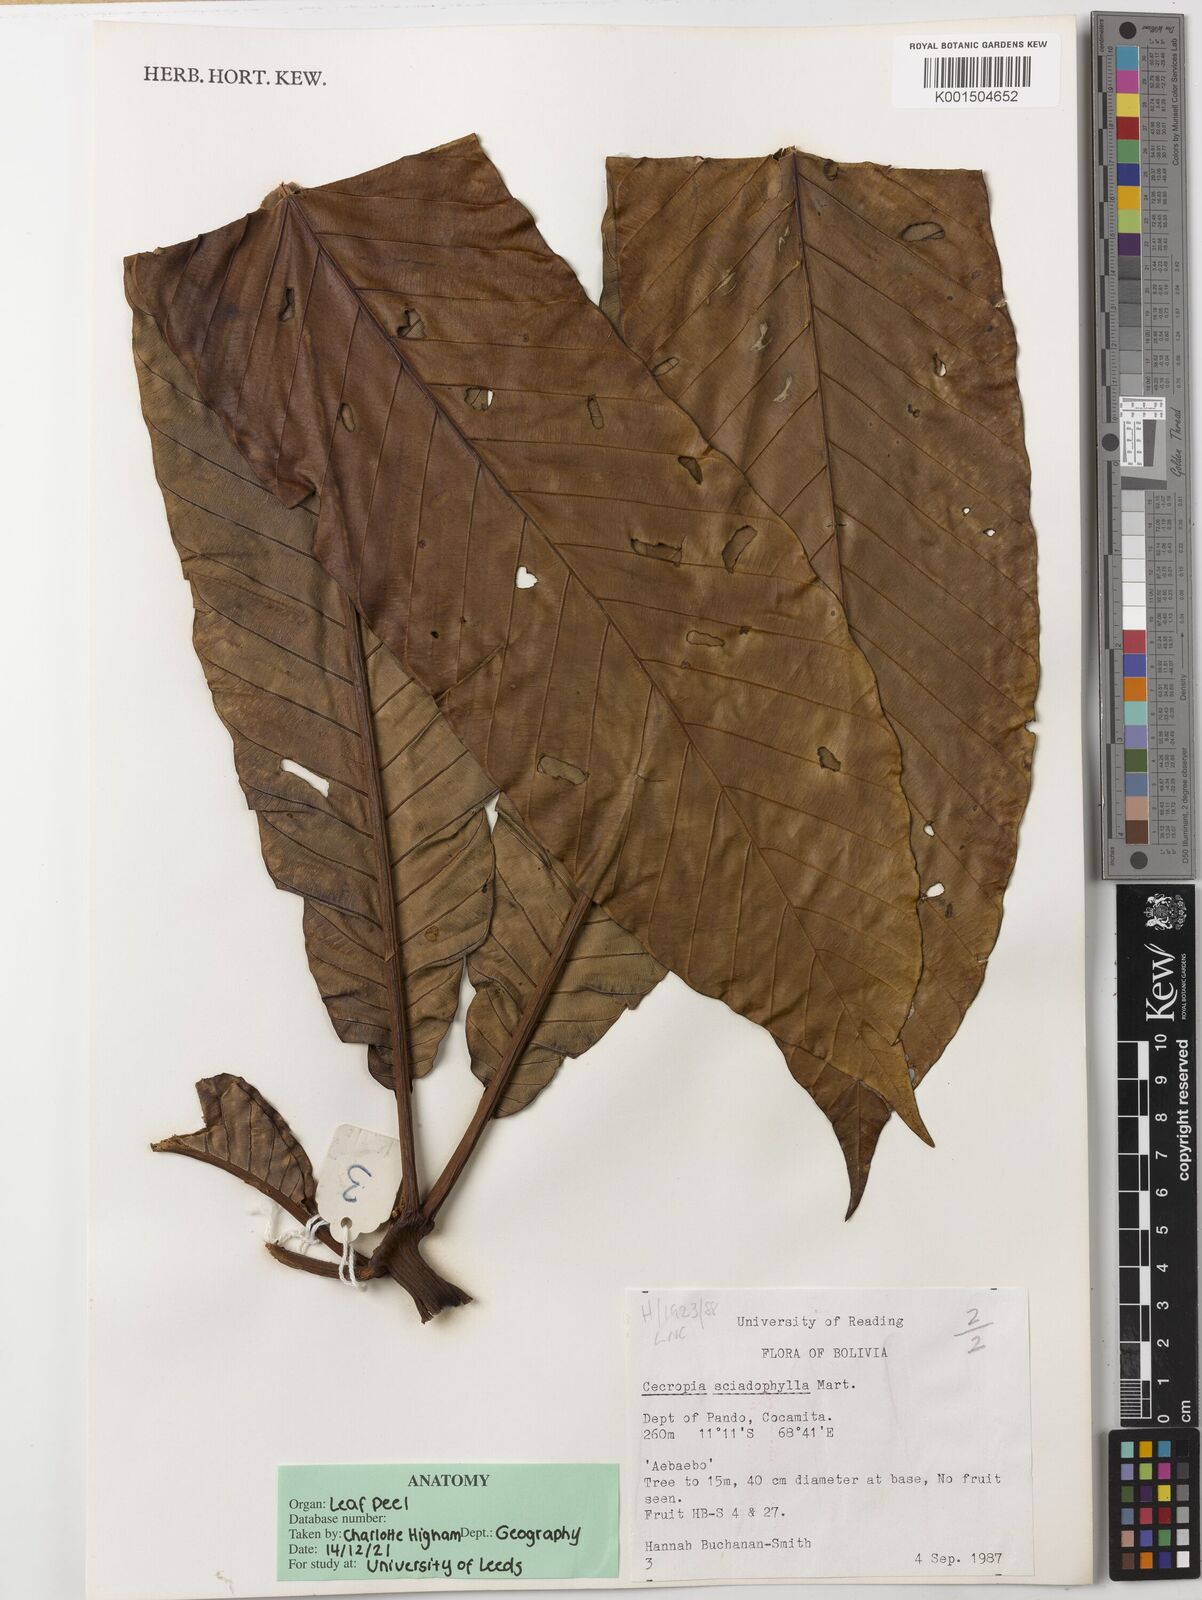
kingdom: Plantae
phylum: Tracheophyta
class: Magnoliopsida
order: Rosales
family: Urticaceae
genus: Cecropia
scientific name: Cecropia sciadophylla
